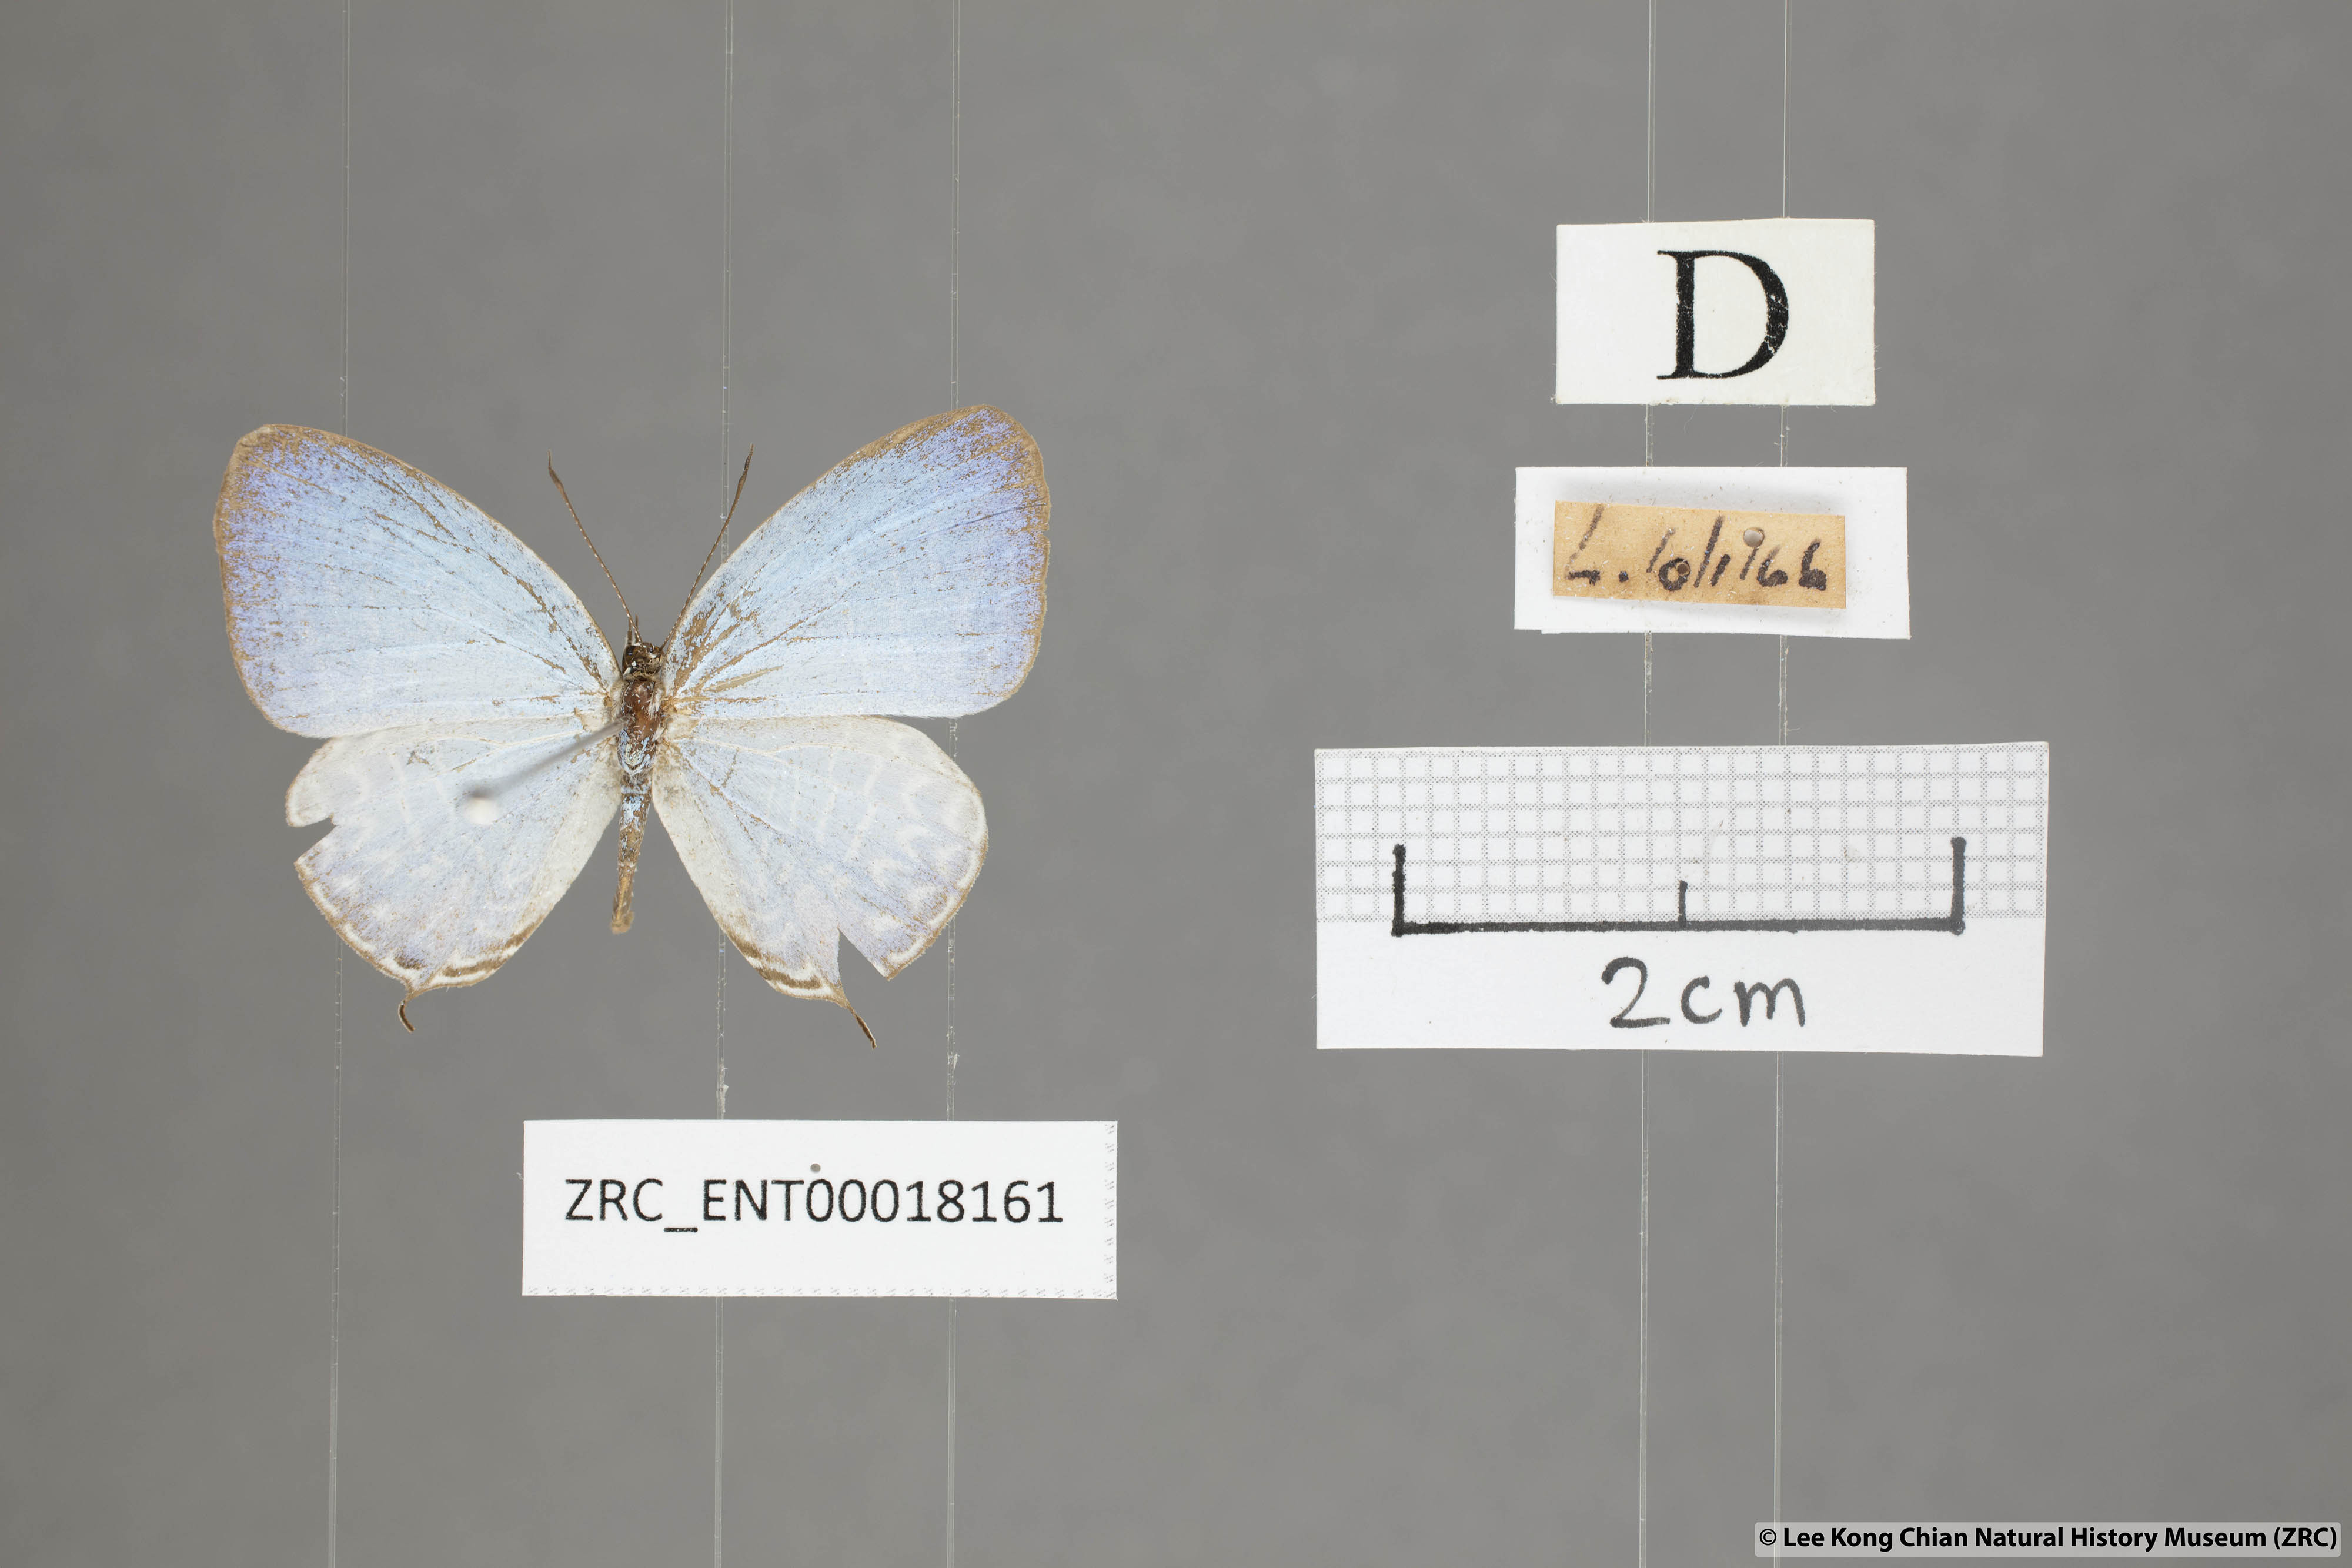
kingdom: Animalia
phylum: Arthropoda
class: Insecta
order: Lepidoptera
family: Lycaenidae
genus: Jamides
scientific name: Jamides
